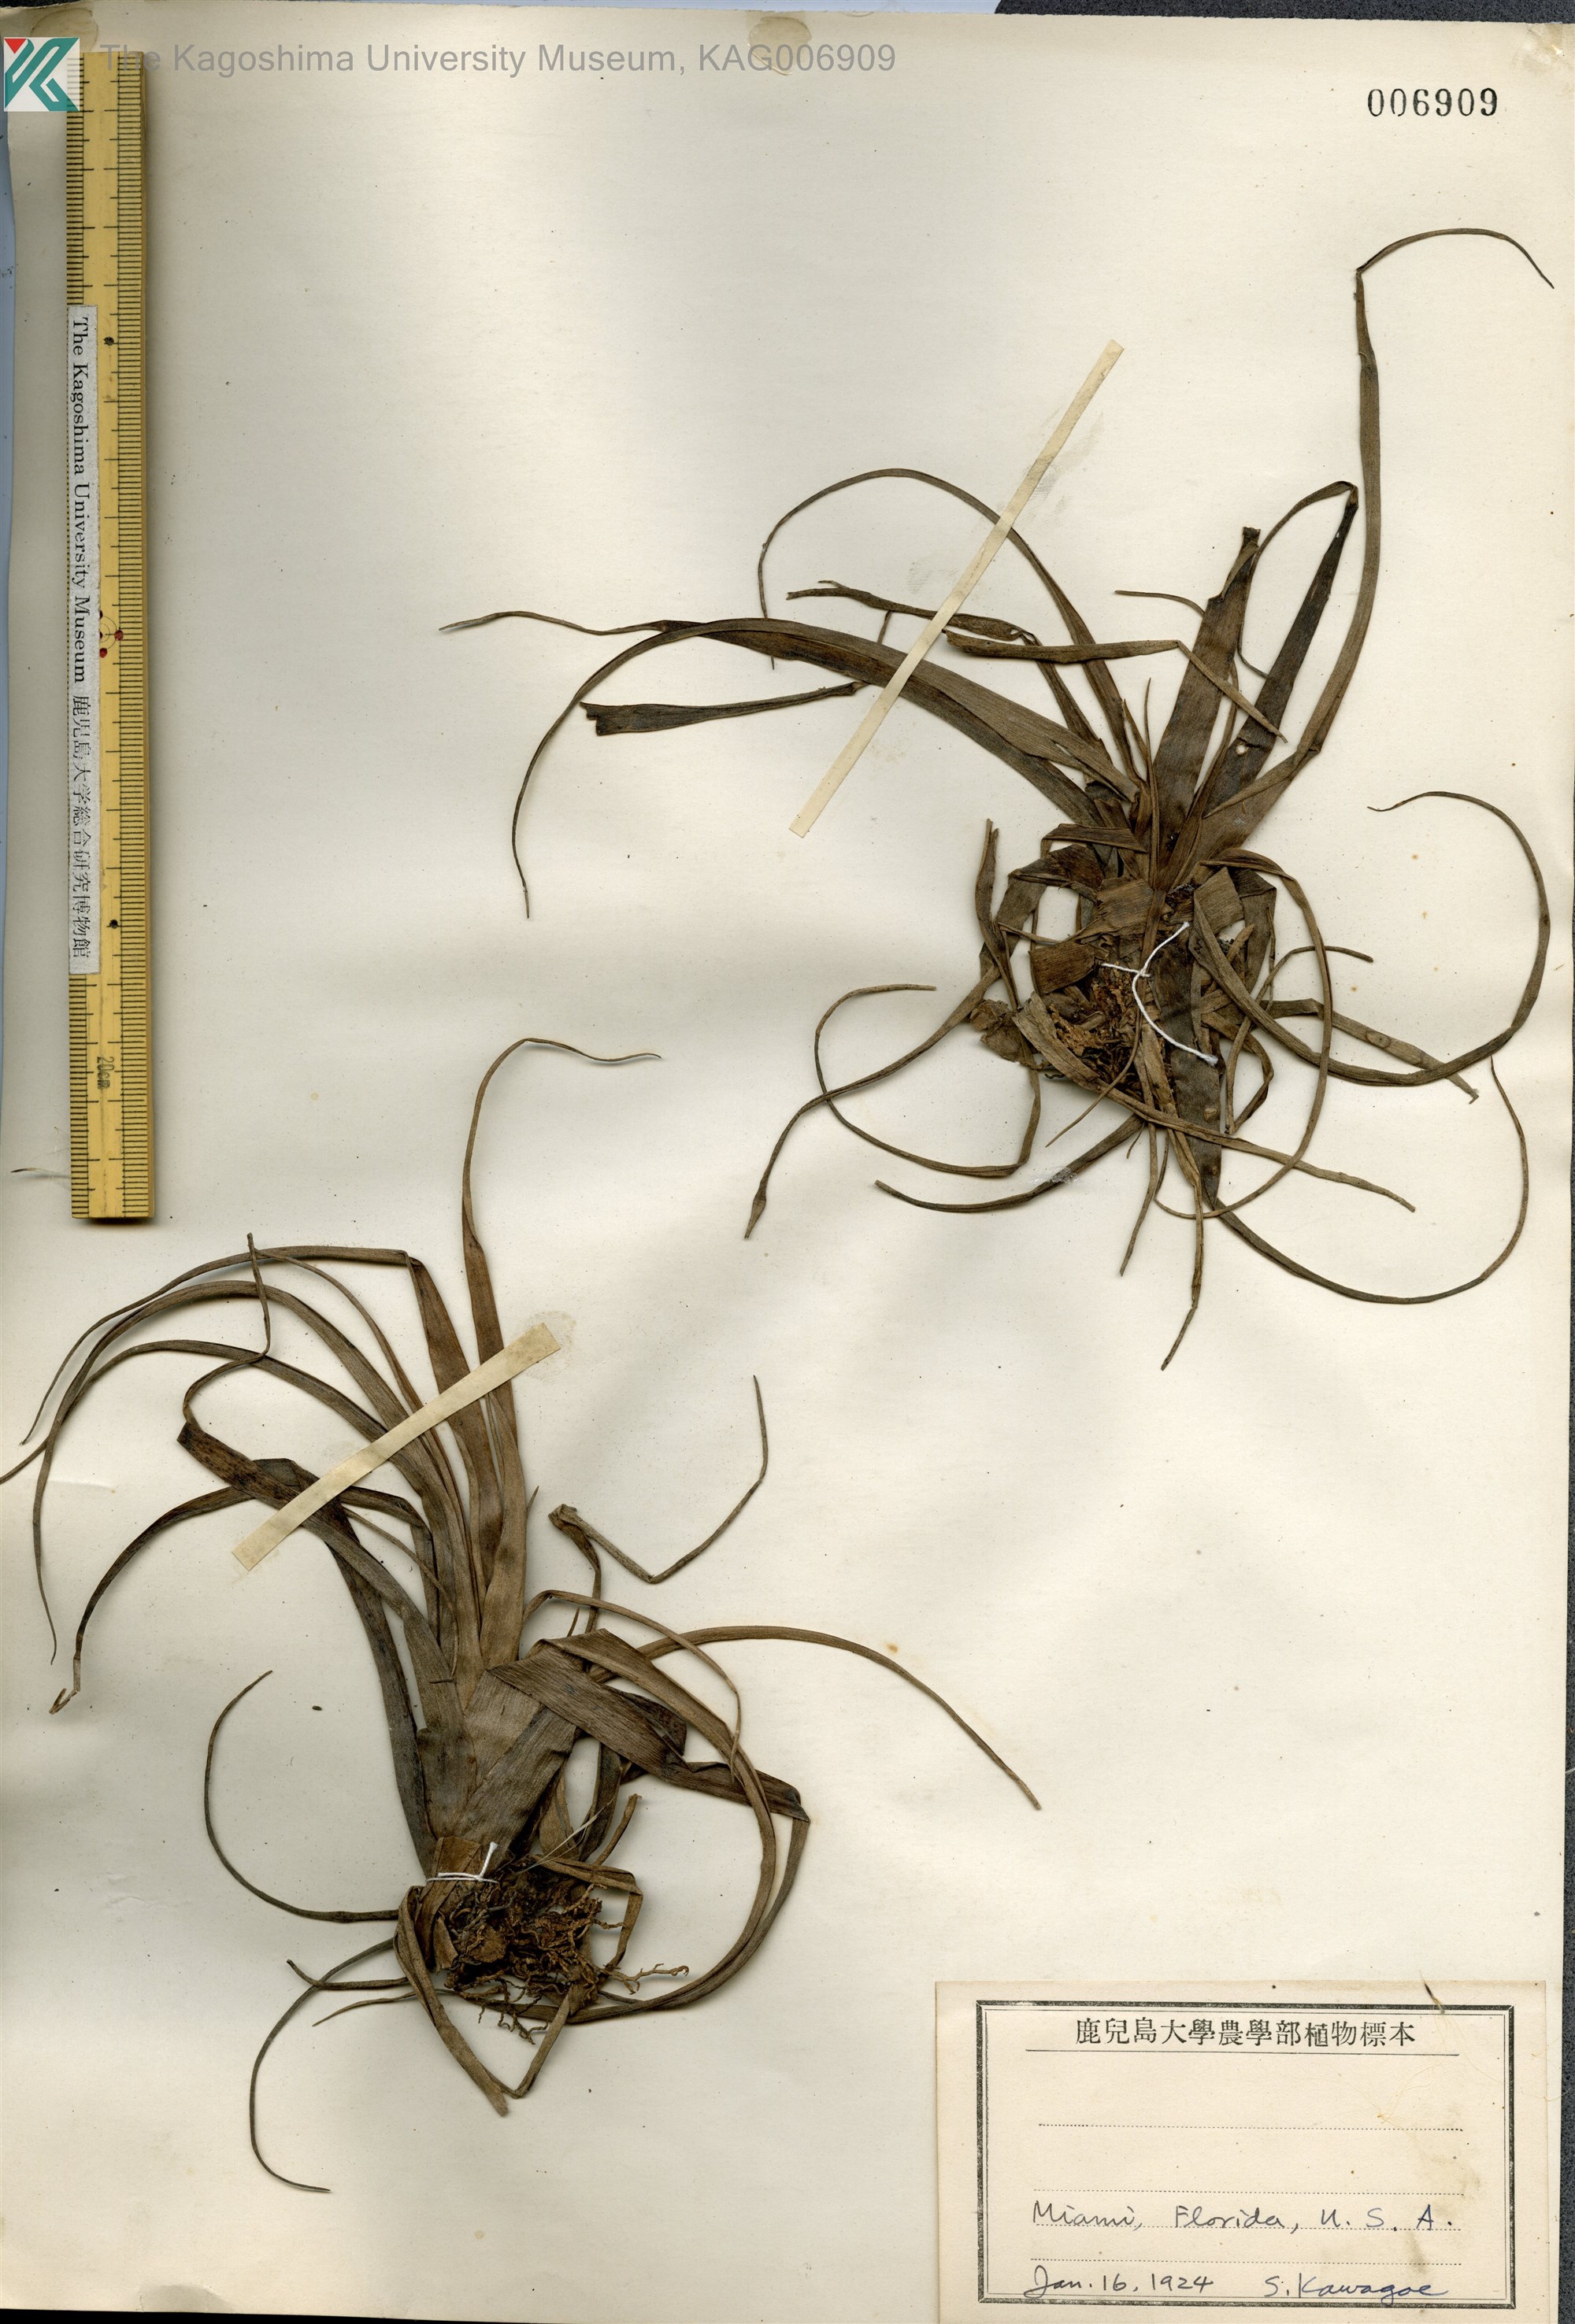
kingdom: Plantae
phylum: Tracheophyta
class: Liliopsida
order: Poales
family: Bromeliaceae
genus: Vriesia
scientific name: Vriesia
